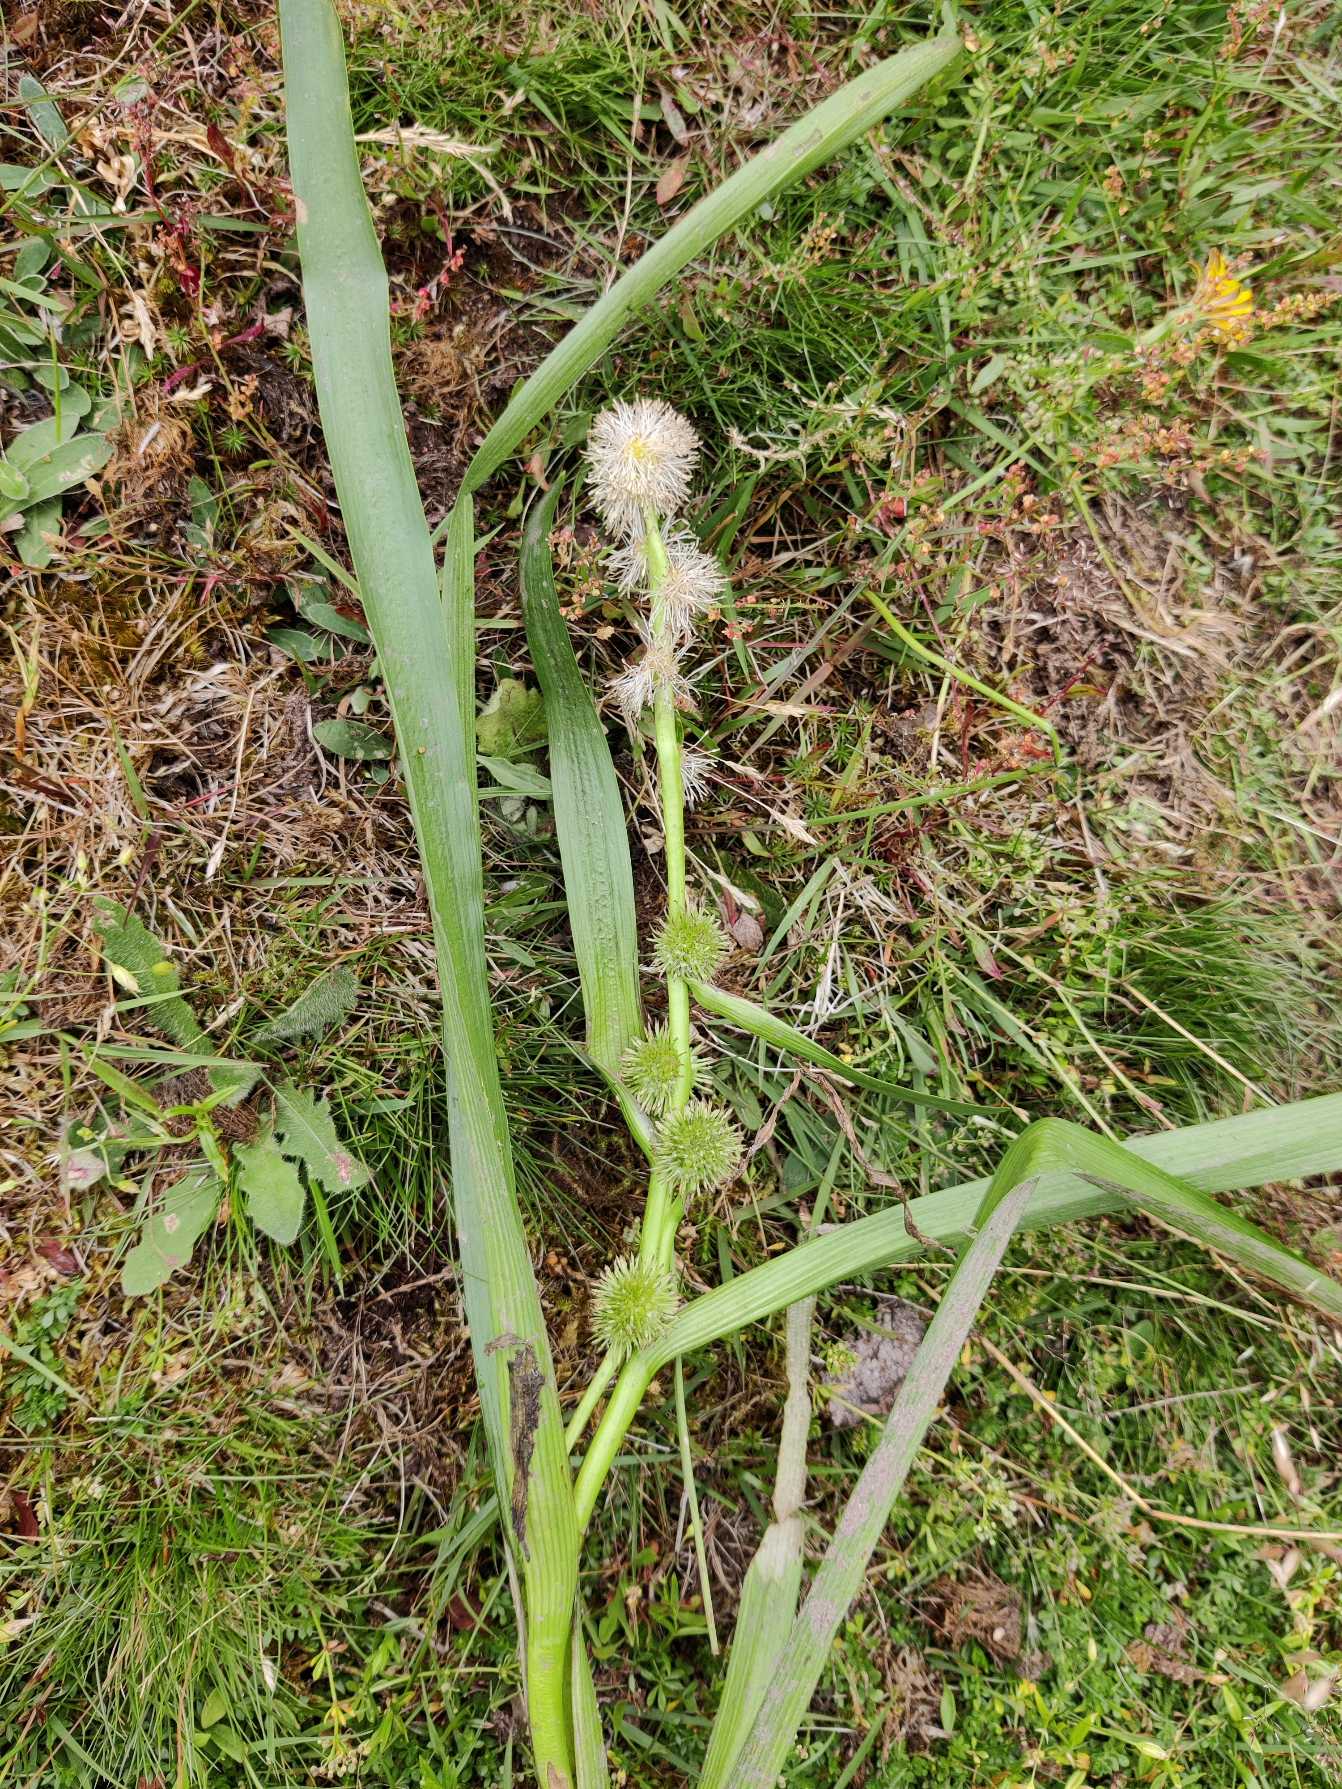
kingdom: Plantae
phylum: Tracheophyta
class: Liliopsida
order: Poales
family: Typhaceae
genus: Sparganium
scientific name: Sparganium emersum
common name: Enkelt pindsvineknop
